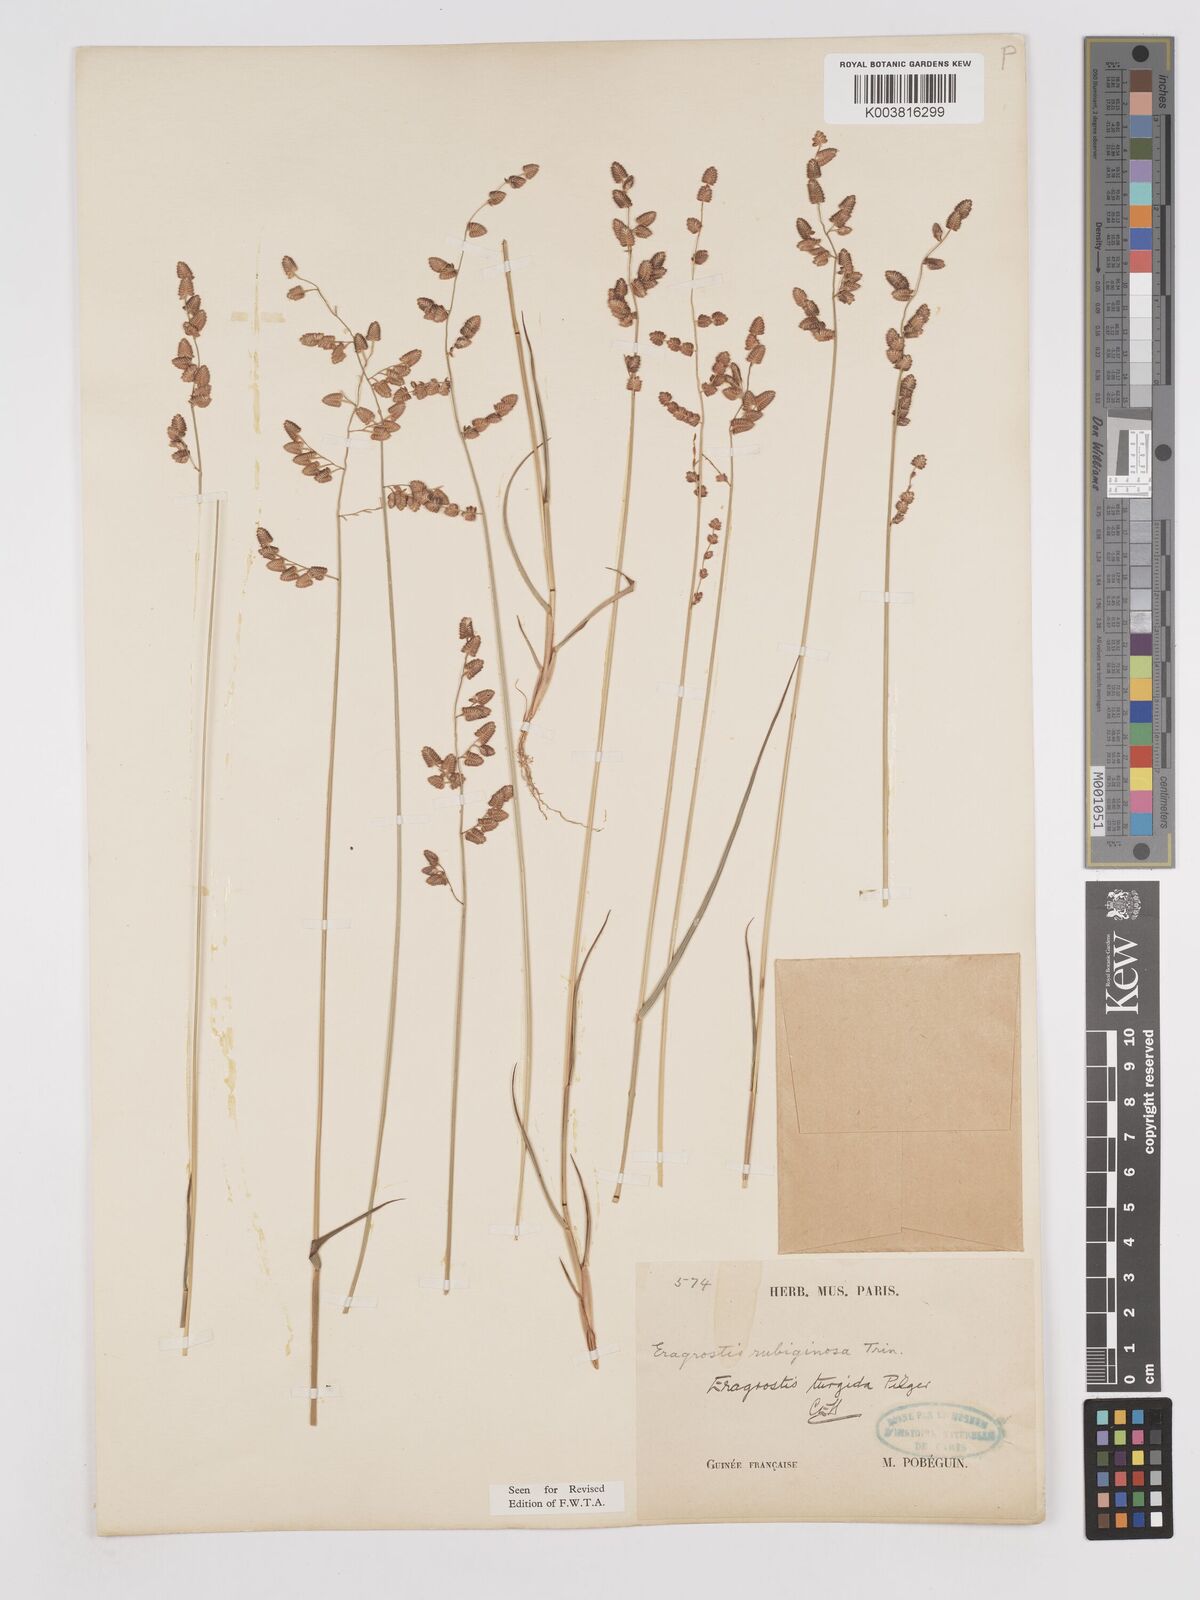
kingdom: Plantae
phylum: Tracheophyta
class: Liliopsida
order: Poales
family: Poaceae
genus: Eragrostis
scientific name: Eragrostis turgida
